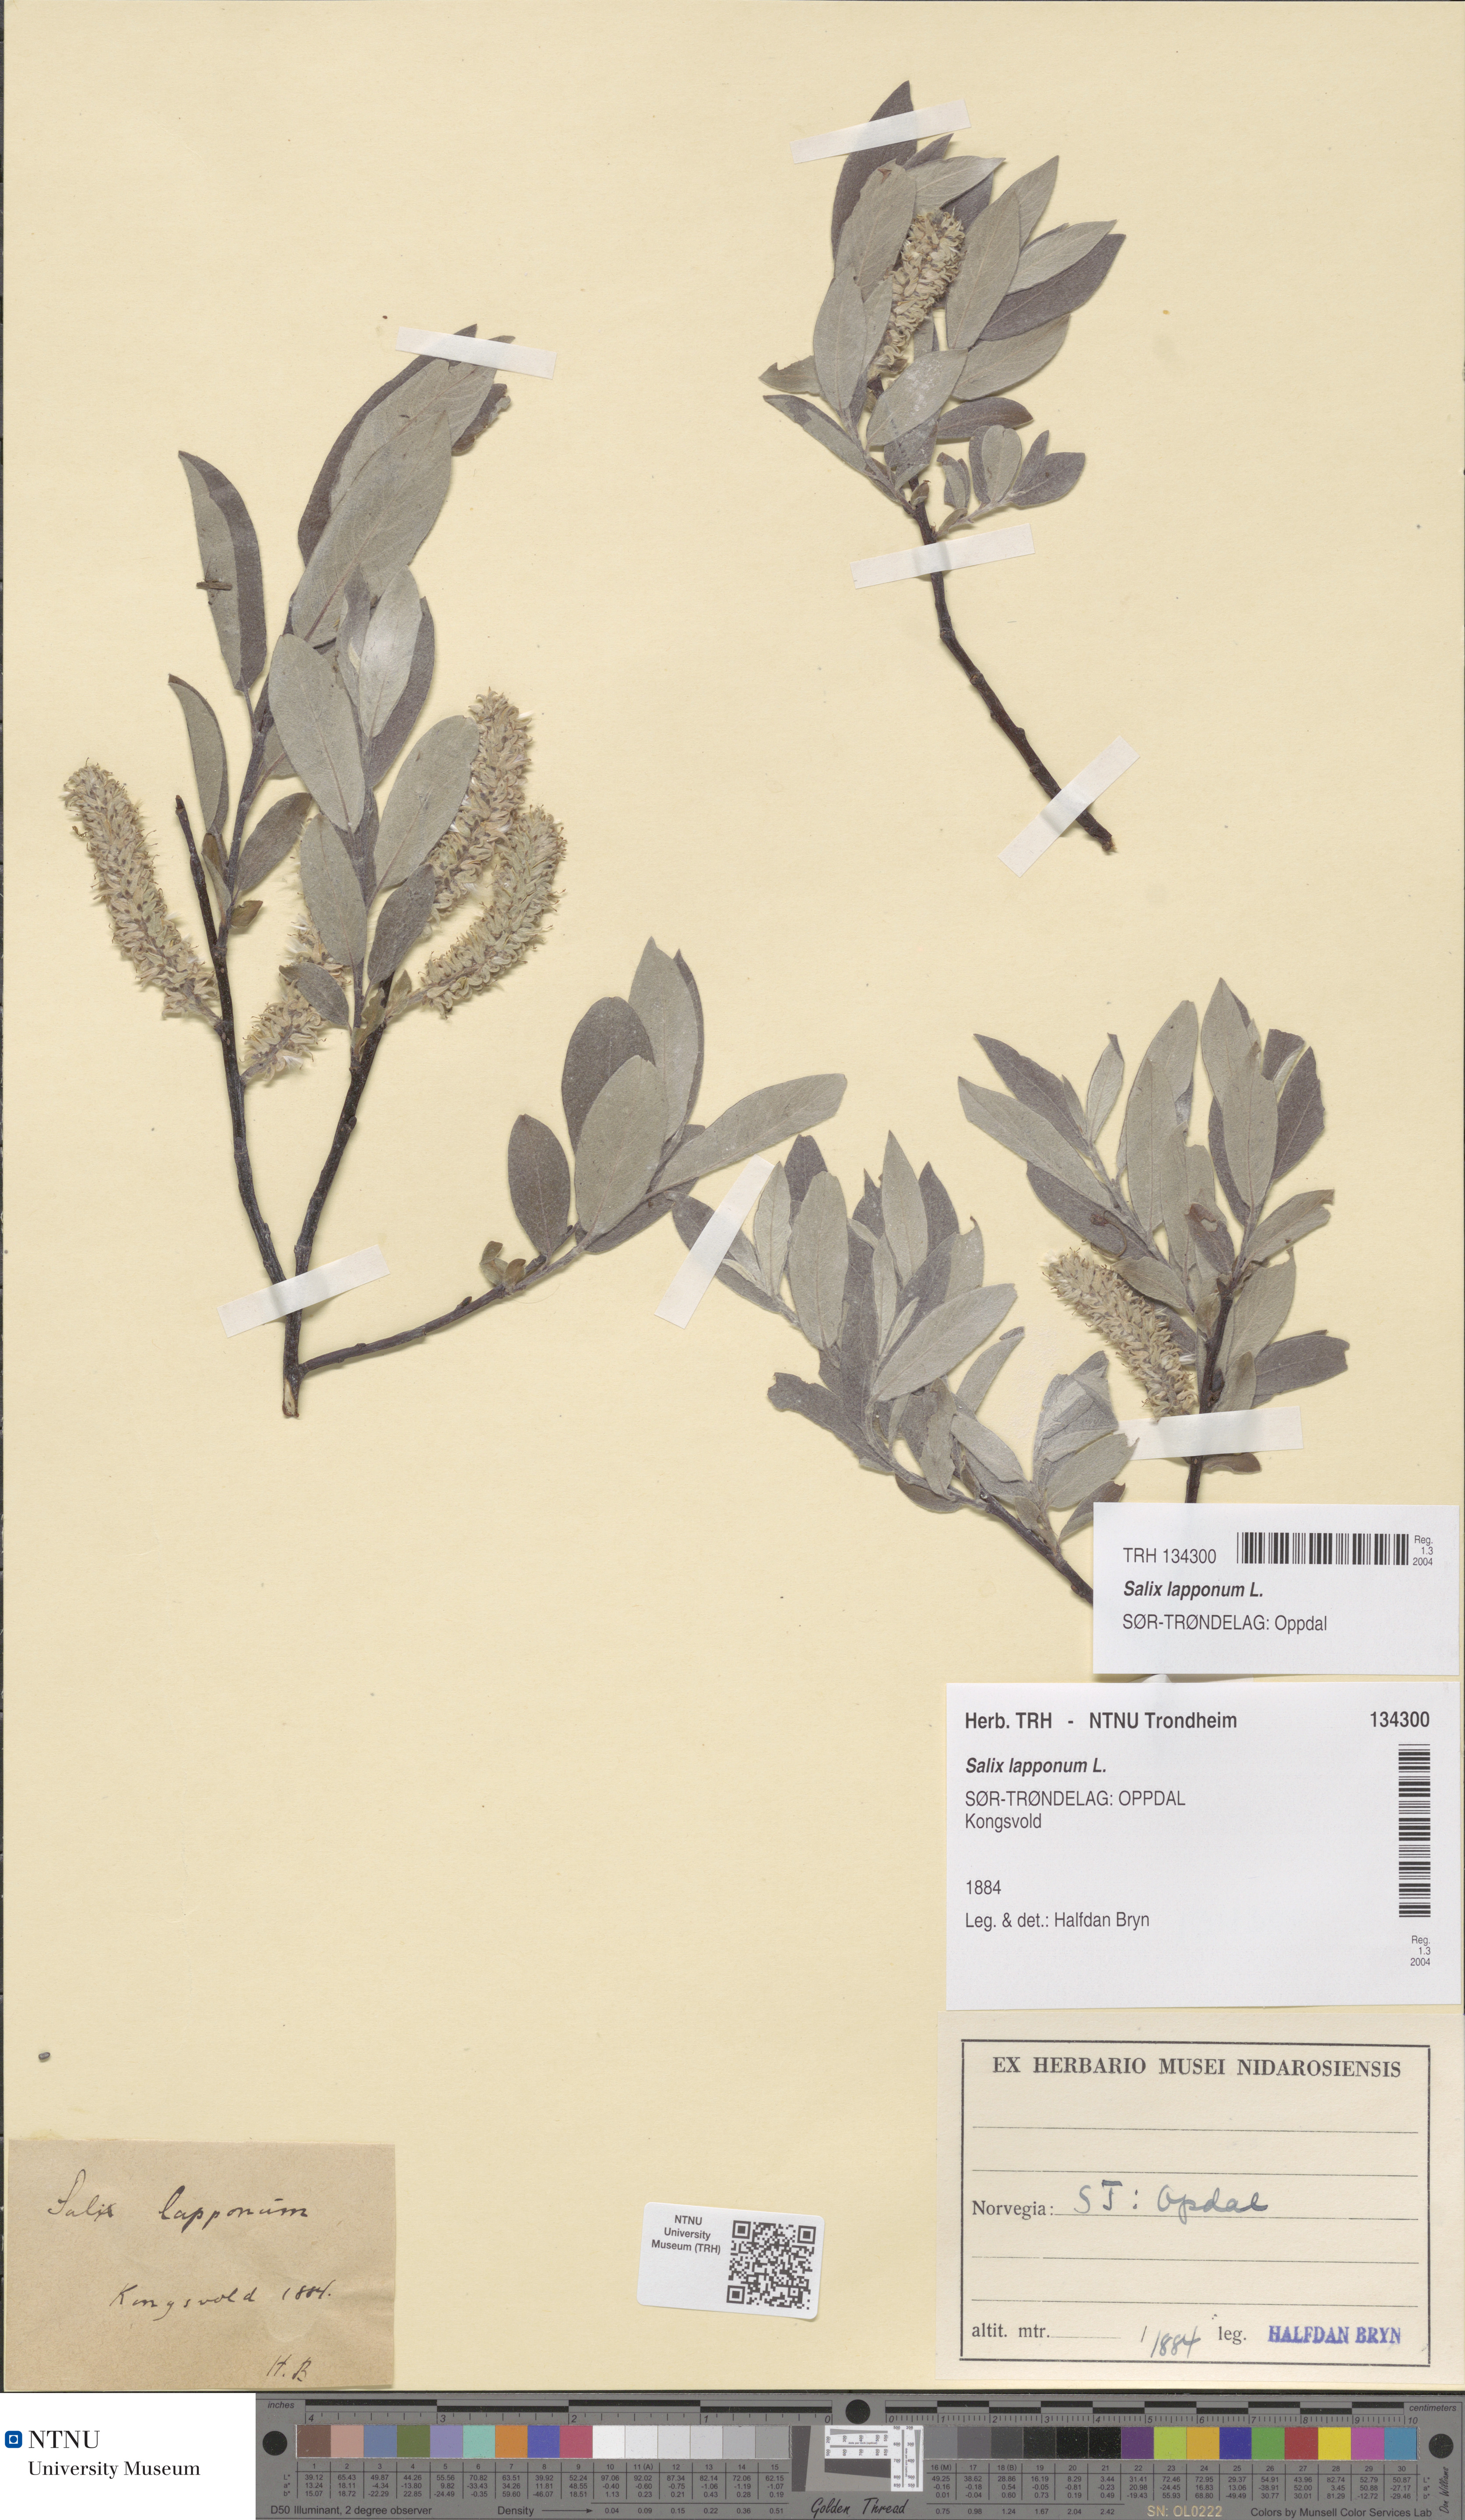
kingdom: Plantae
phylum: Tracheophyta
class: Magnoliopsida
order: Malpighiales
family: Salicaceae
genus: Salix
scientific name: Salix lapponum
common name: Downy willow
